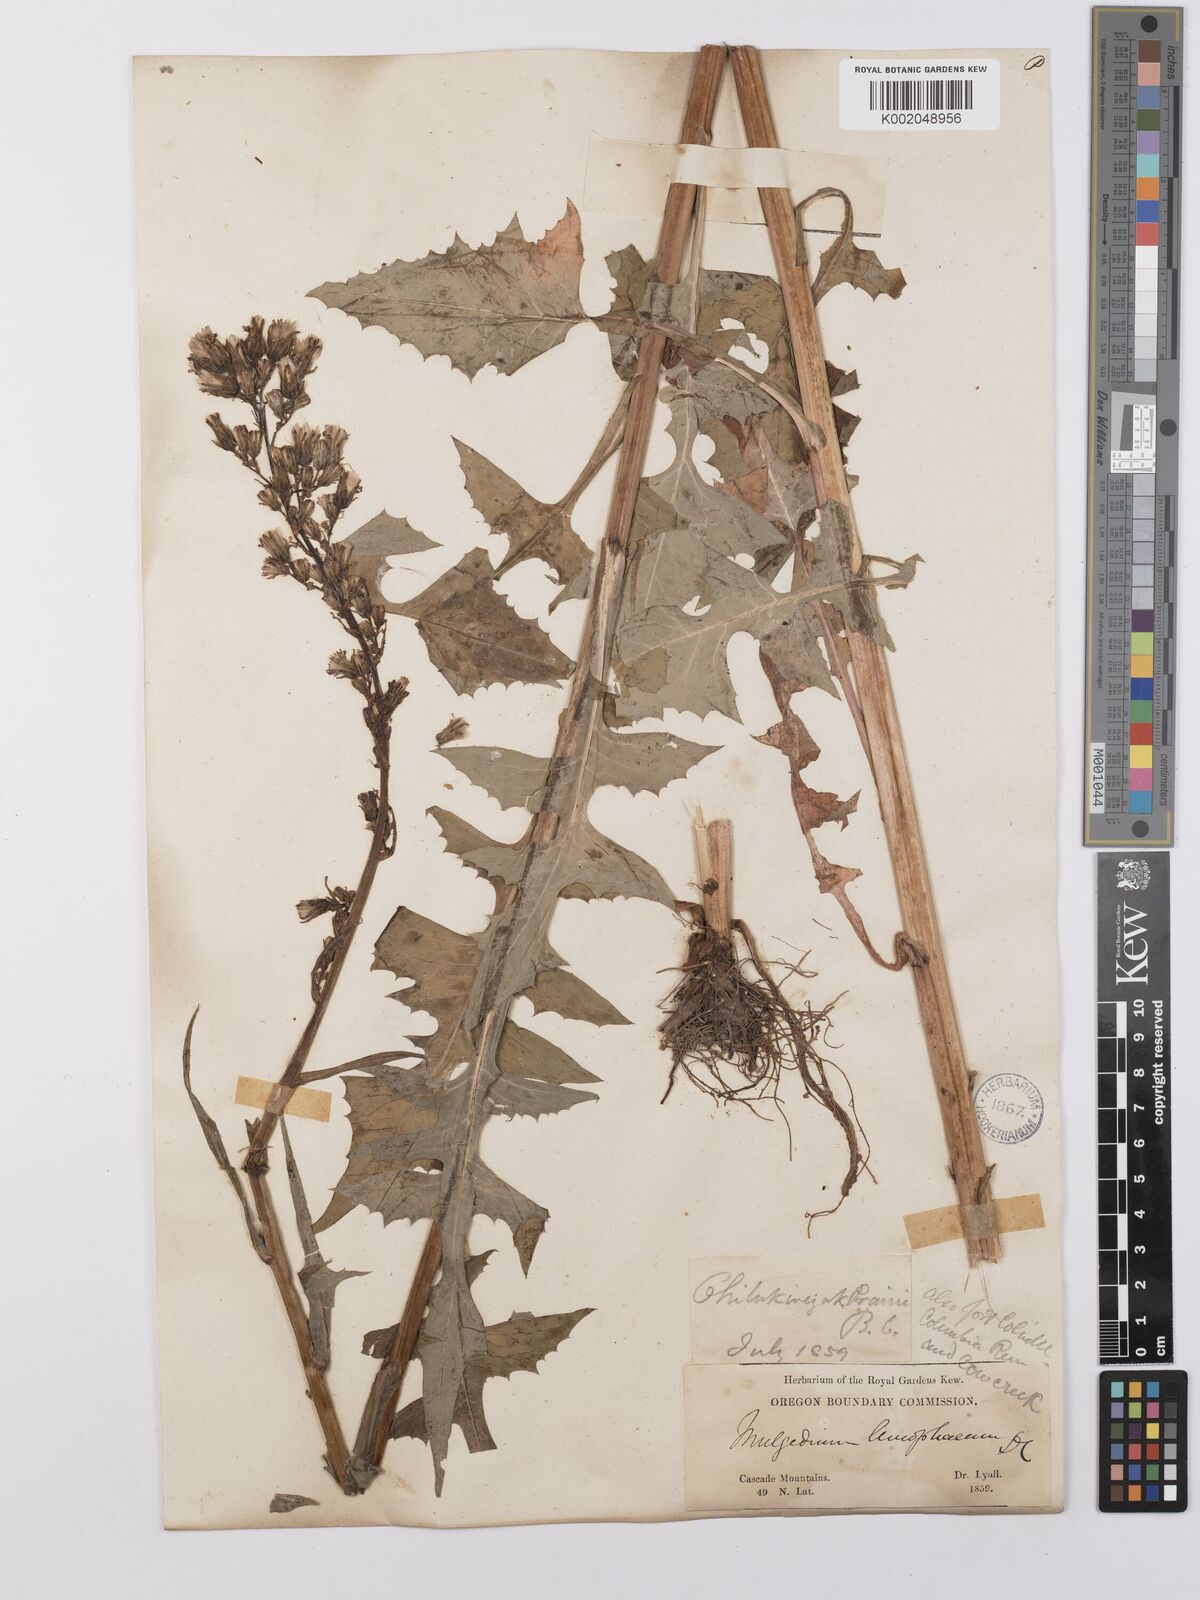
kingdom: Plantae
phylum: Tracheophyta
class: Magnoliopsida
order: Asterales
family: Asteraceae
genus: Lactuca
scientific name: Lactuca
